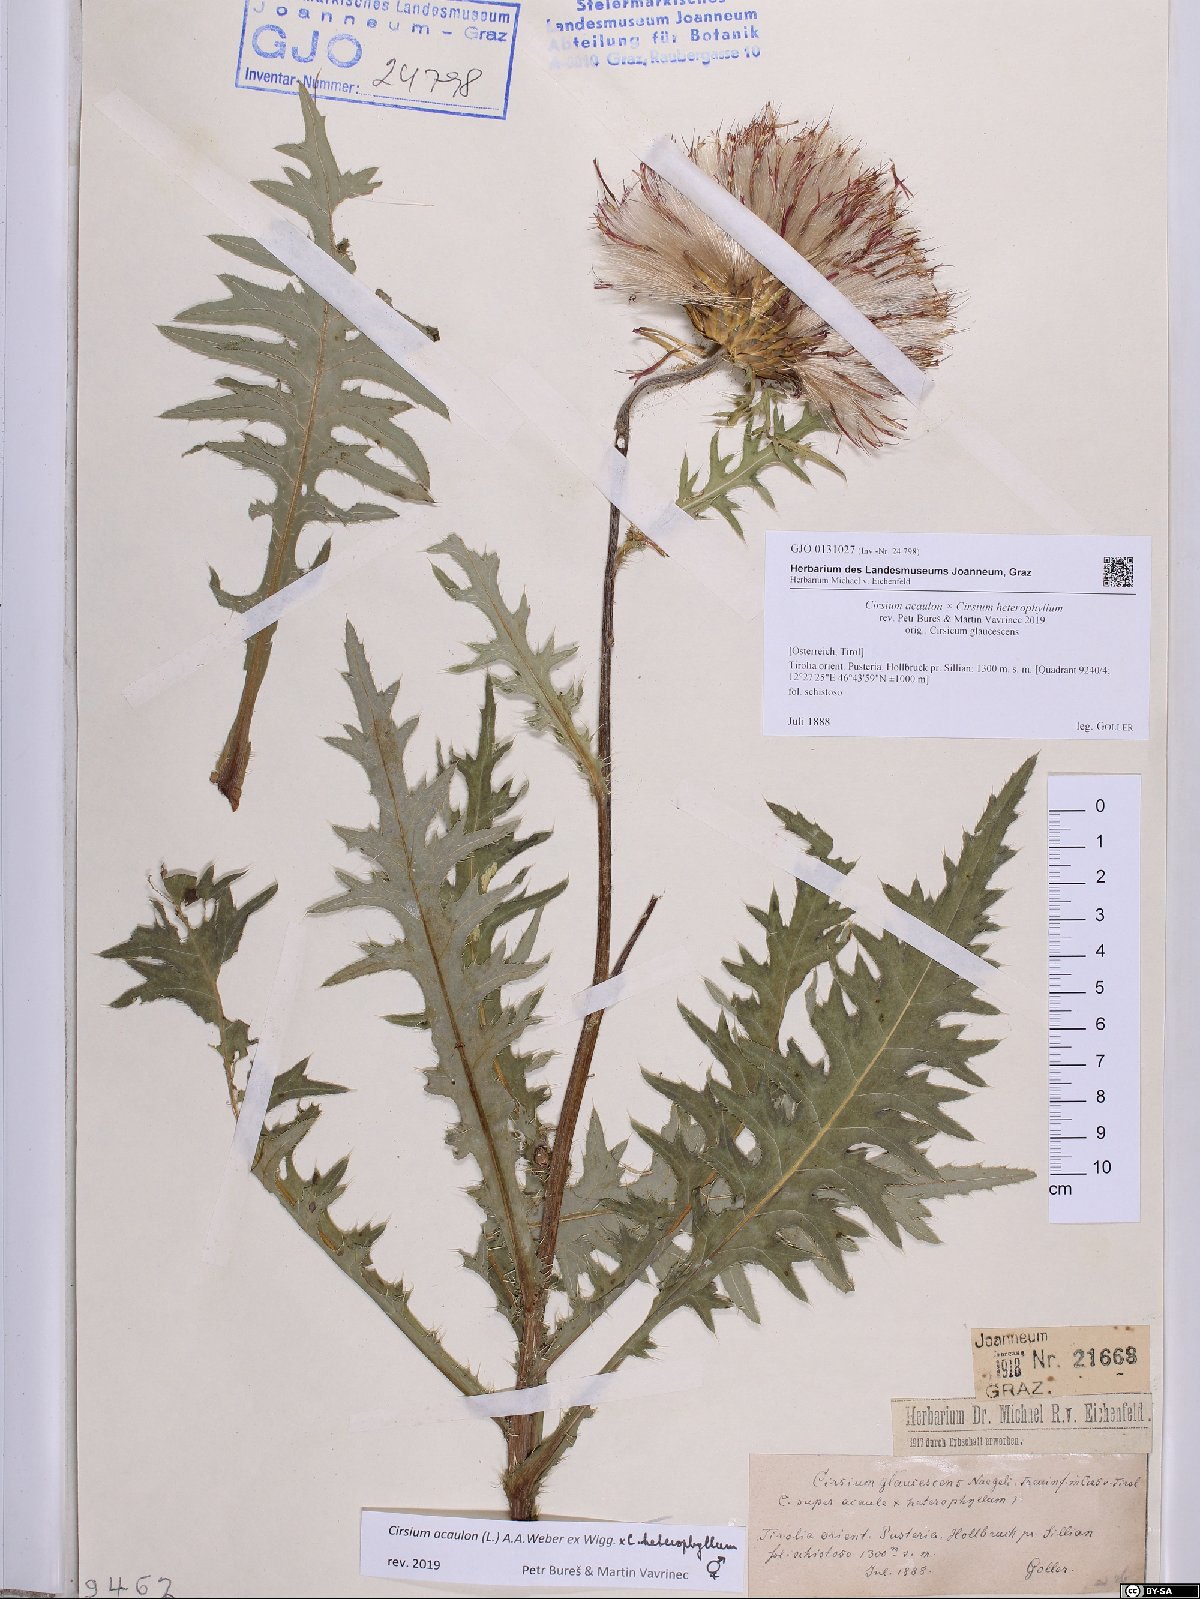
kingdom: Plantae
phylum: Tracheophyta
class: Magnoliopsida
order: Asterales
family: Asteraceae
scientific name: Asteraceae
